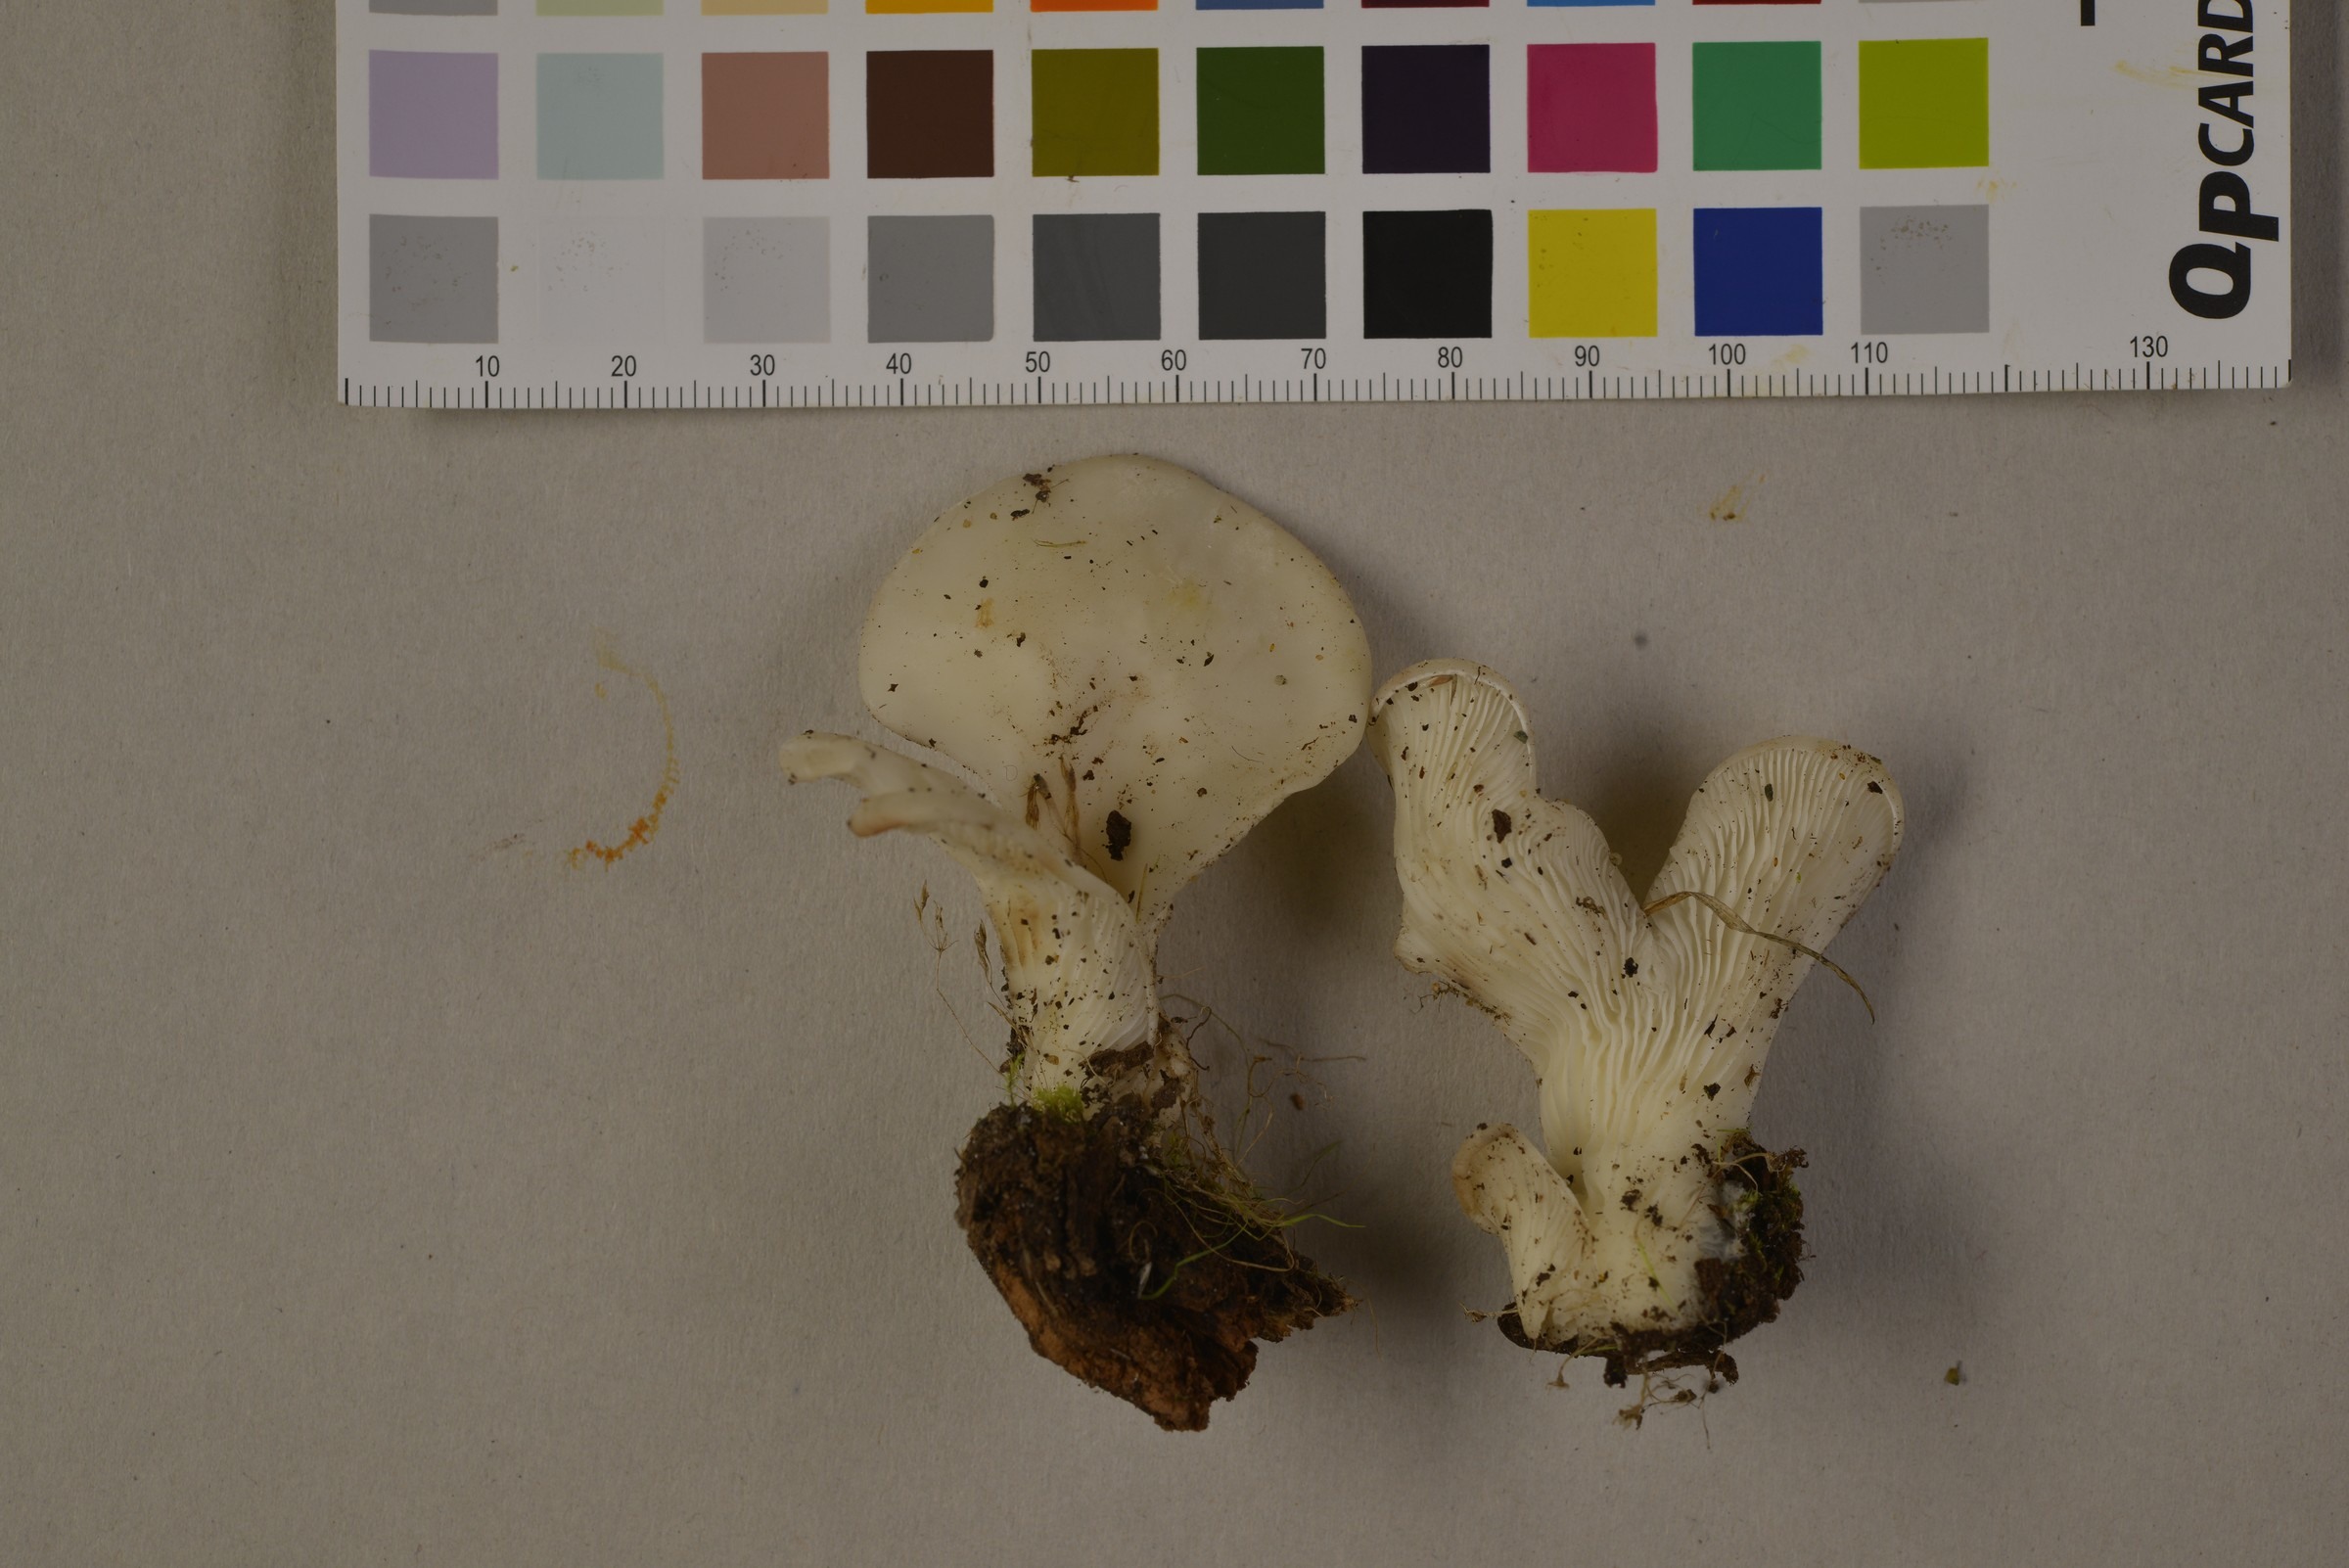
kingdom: Fungi
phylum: Basidiomycota
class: Agaricomycetes
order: Agaricales
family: Marasmiaceae
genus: Pleurocybella
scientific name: Pleurocybella porrigens
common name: Angel's wings
